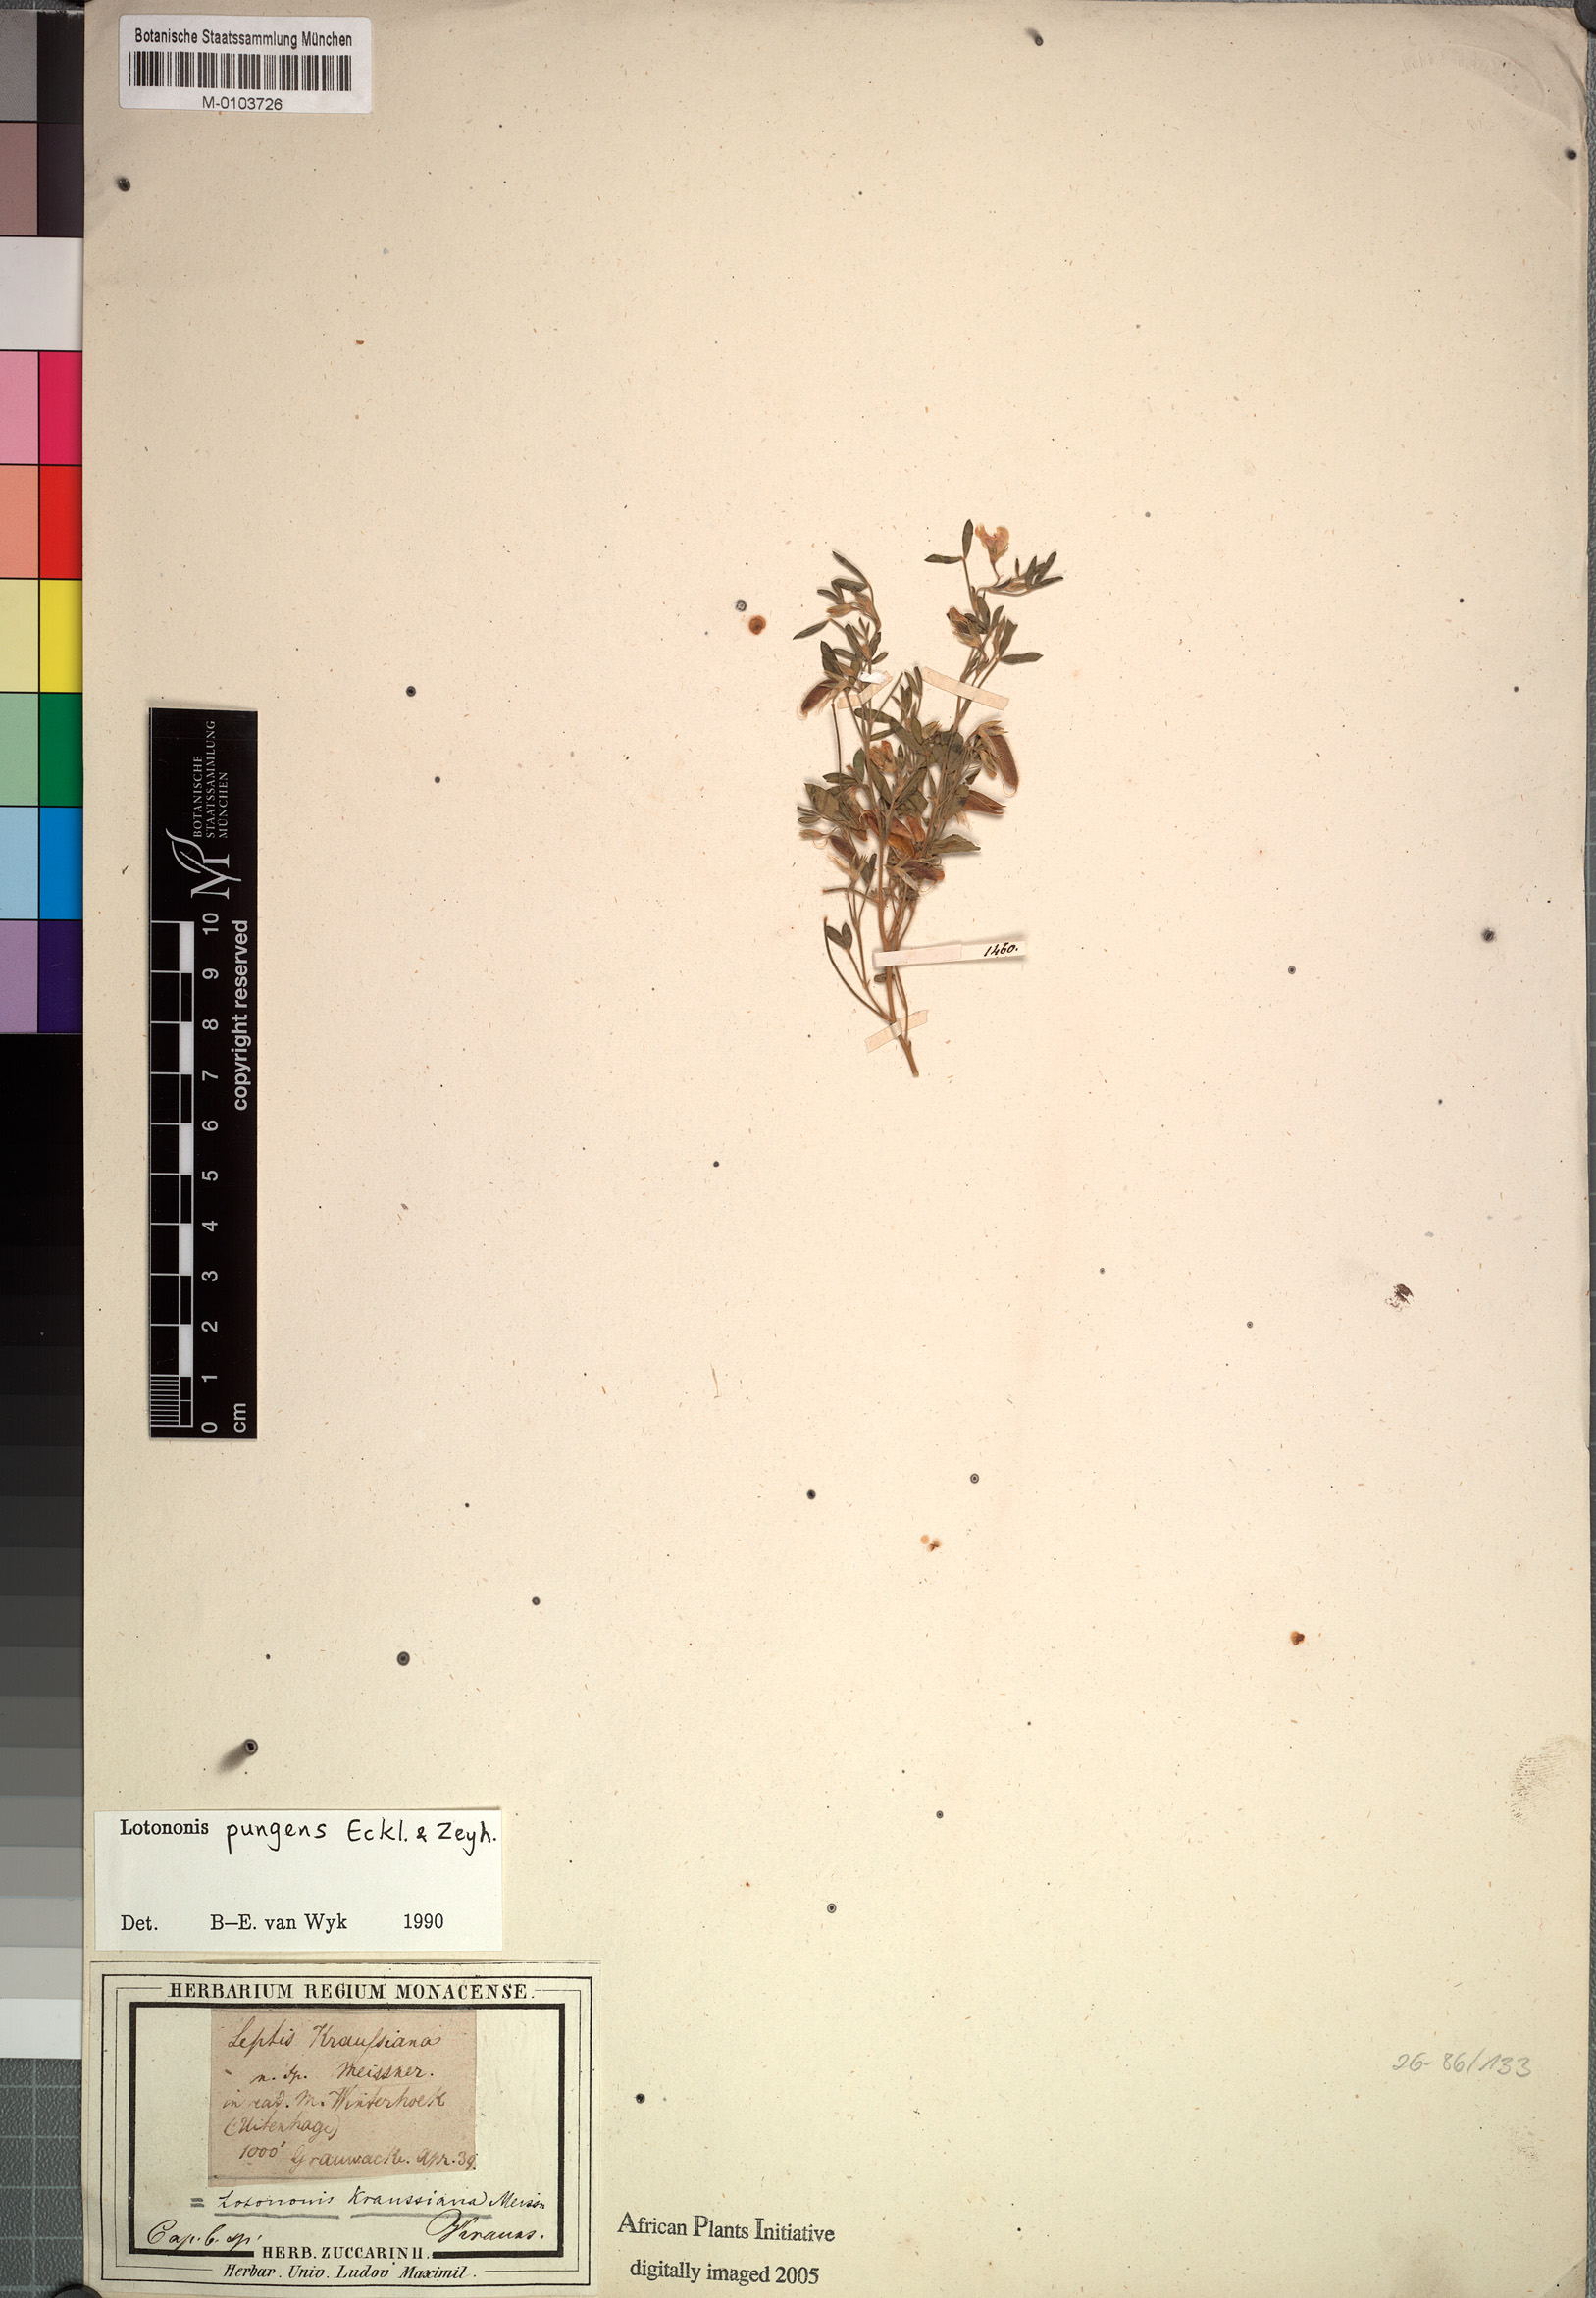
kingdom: Plantae
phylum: Tracheophyta
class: Magnoliopsida
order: Fabales
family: Fabaceae
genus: Lotononis
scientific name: Lotononis pungens
